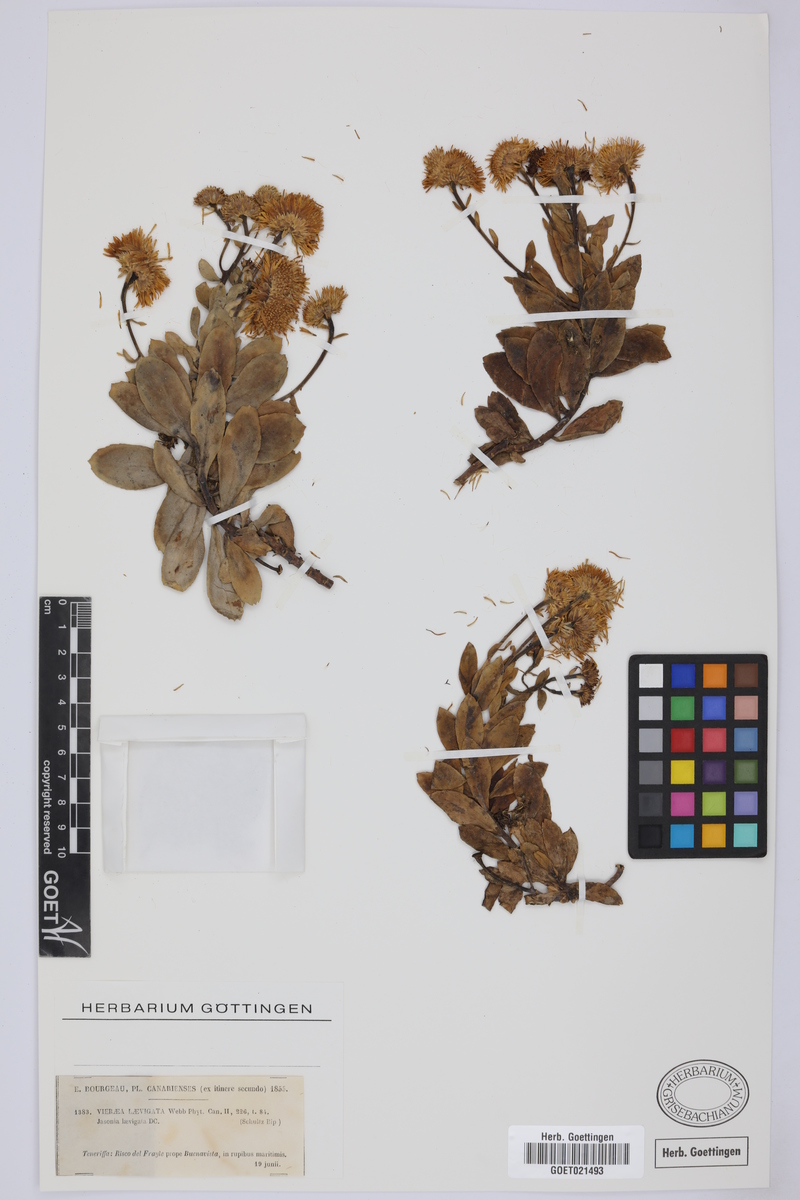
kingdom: Plantae
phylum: Tracheophyta
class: Magnoliopsida
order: Asterales
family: Asteraceae
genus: Vieraea
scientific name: Vieraea laevigata
